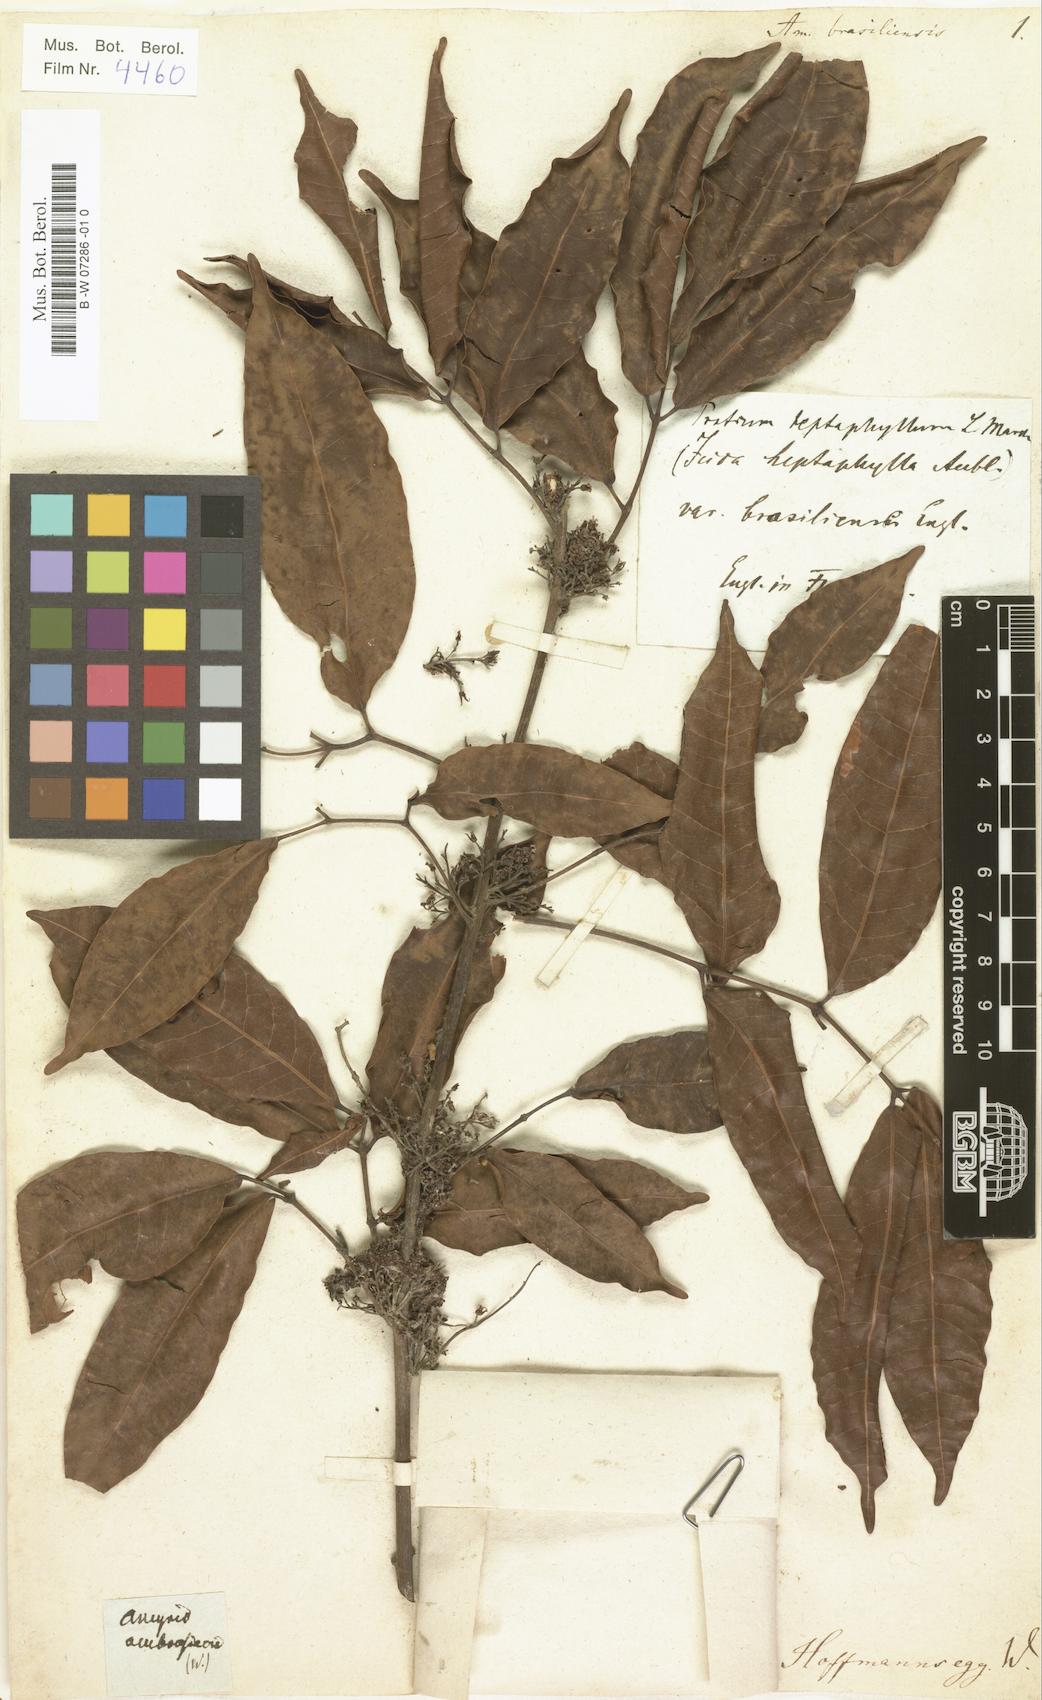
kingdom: Plantae
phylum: Tracheophyta
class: Magnoliopsida
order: Sapindales
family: Burseraceae
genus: Protium
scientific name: Protium
